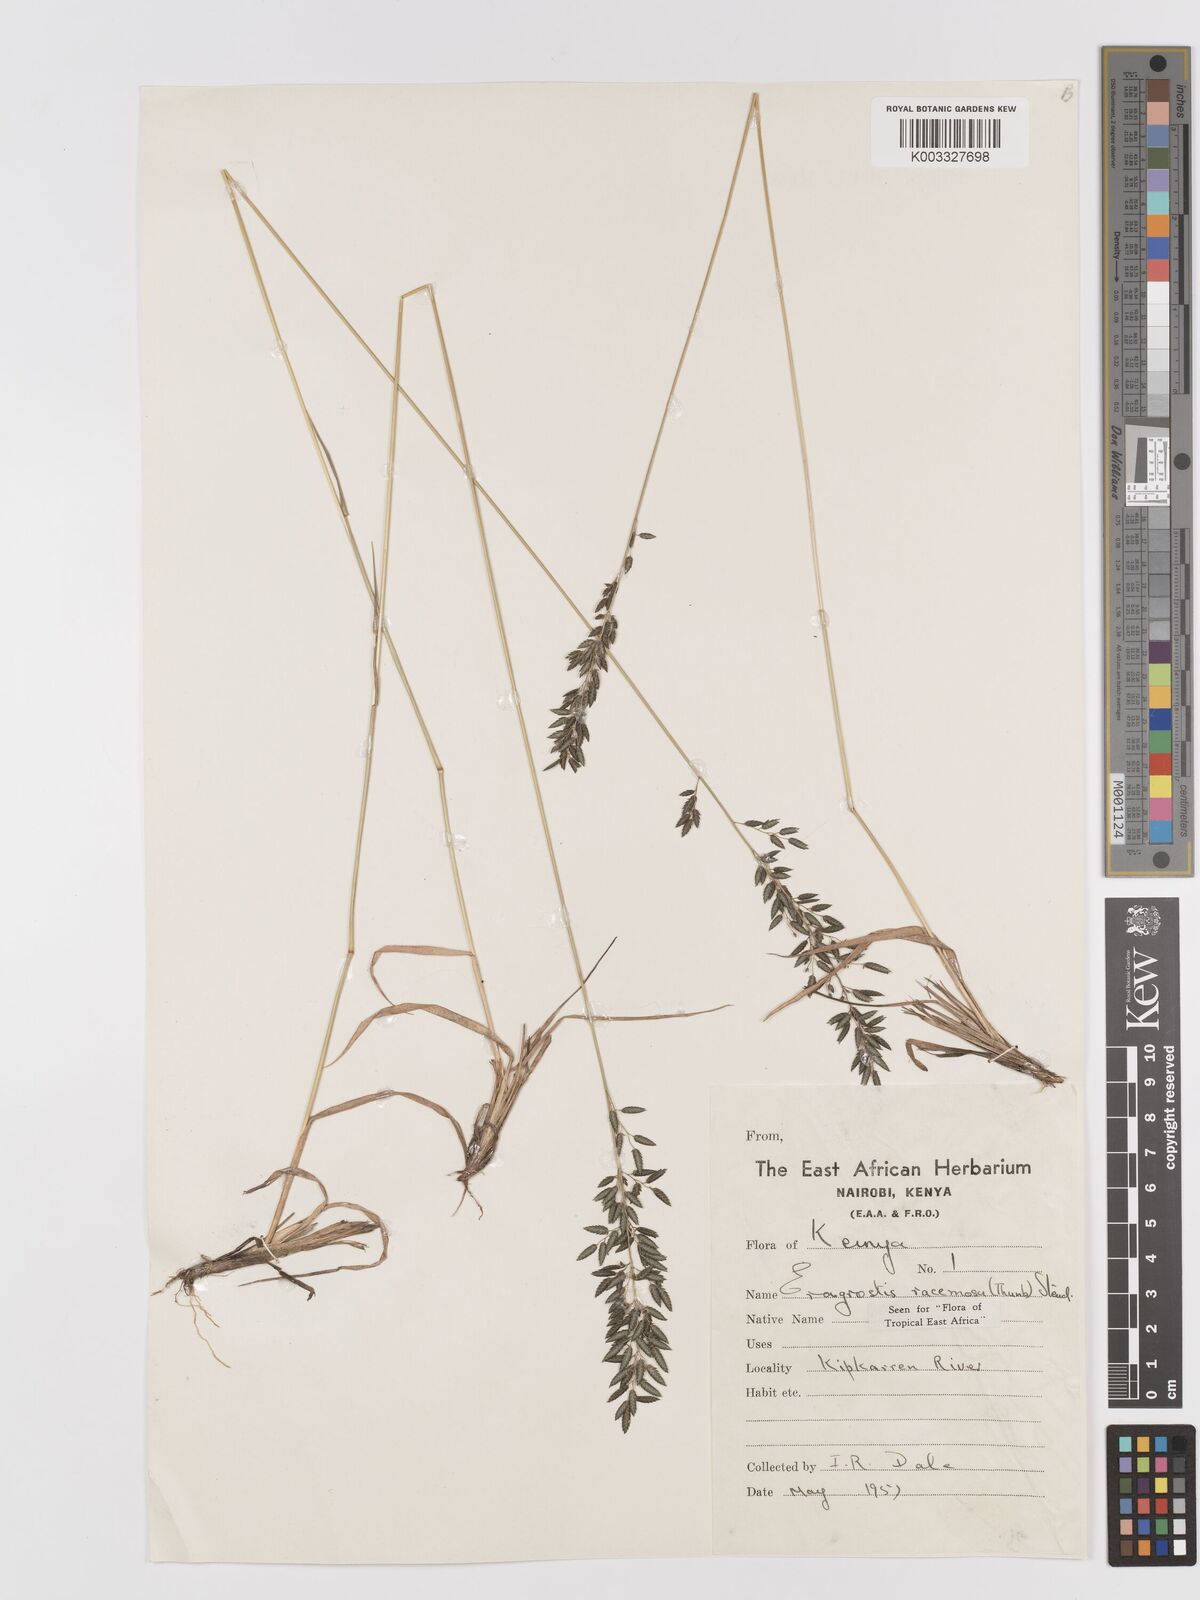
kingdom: Plantae
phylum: Tracheophyta
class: Liliopsida
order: Poales
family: Poaceae
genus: Eragrostis
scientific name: Eragrostis racemosa
